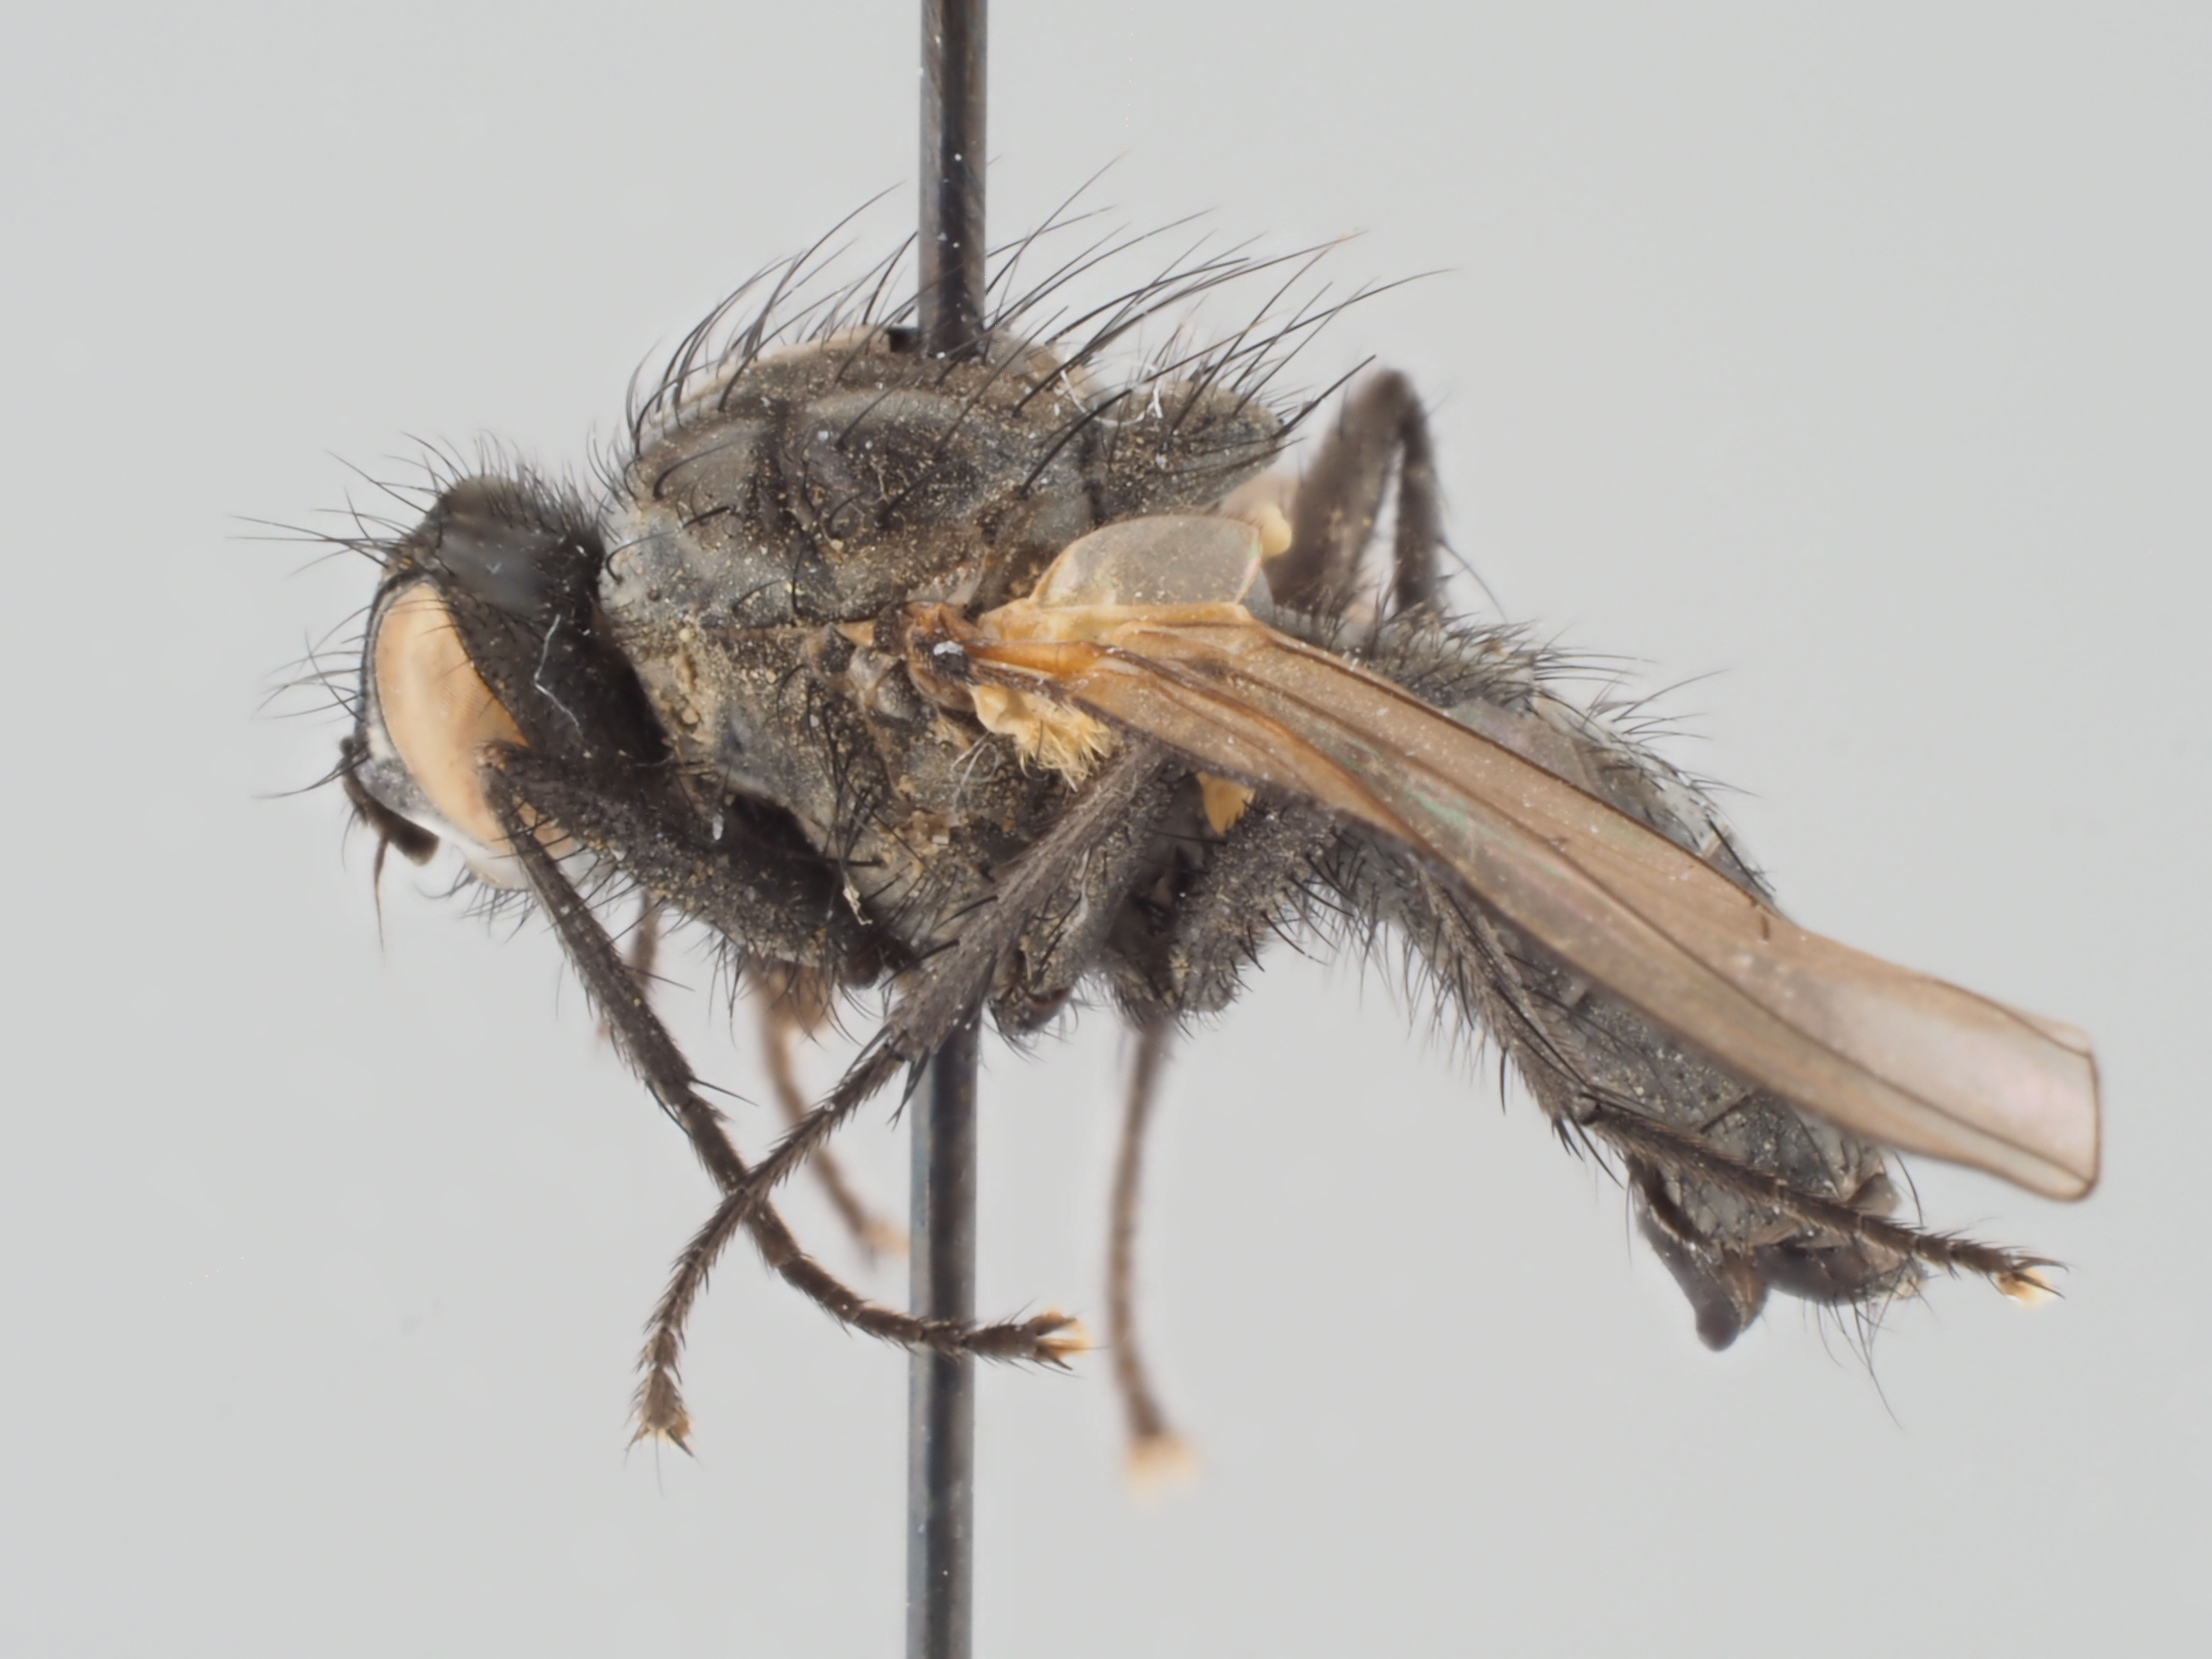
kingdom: Animalia
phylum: Arthropoda
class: Insecta
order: Diptera
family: Anthomyiidae
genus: Alliopsis
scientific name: Alliopsis teriolensis
